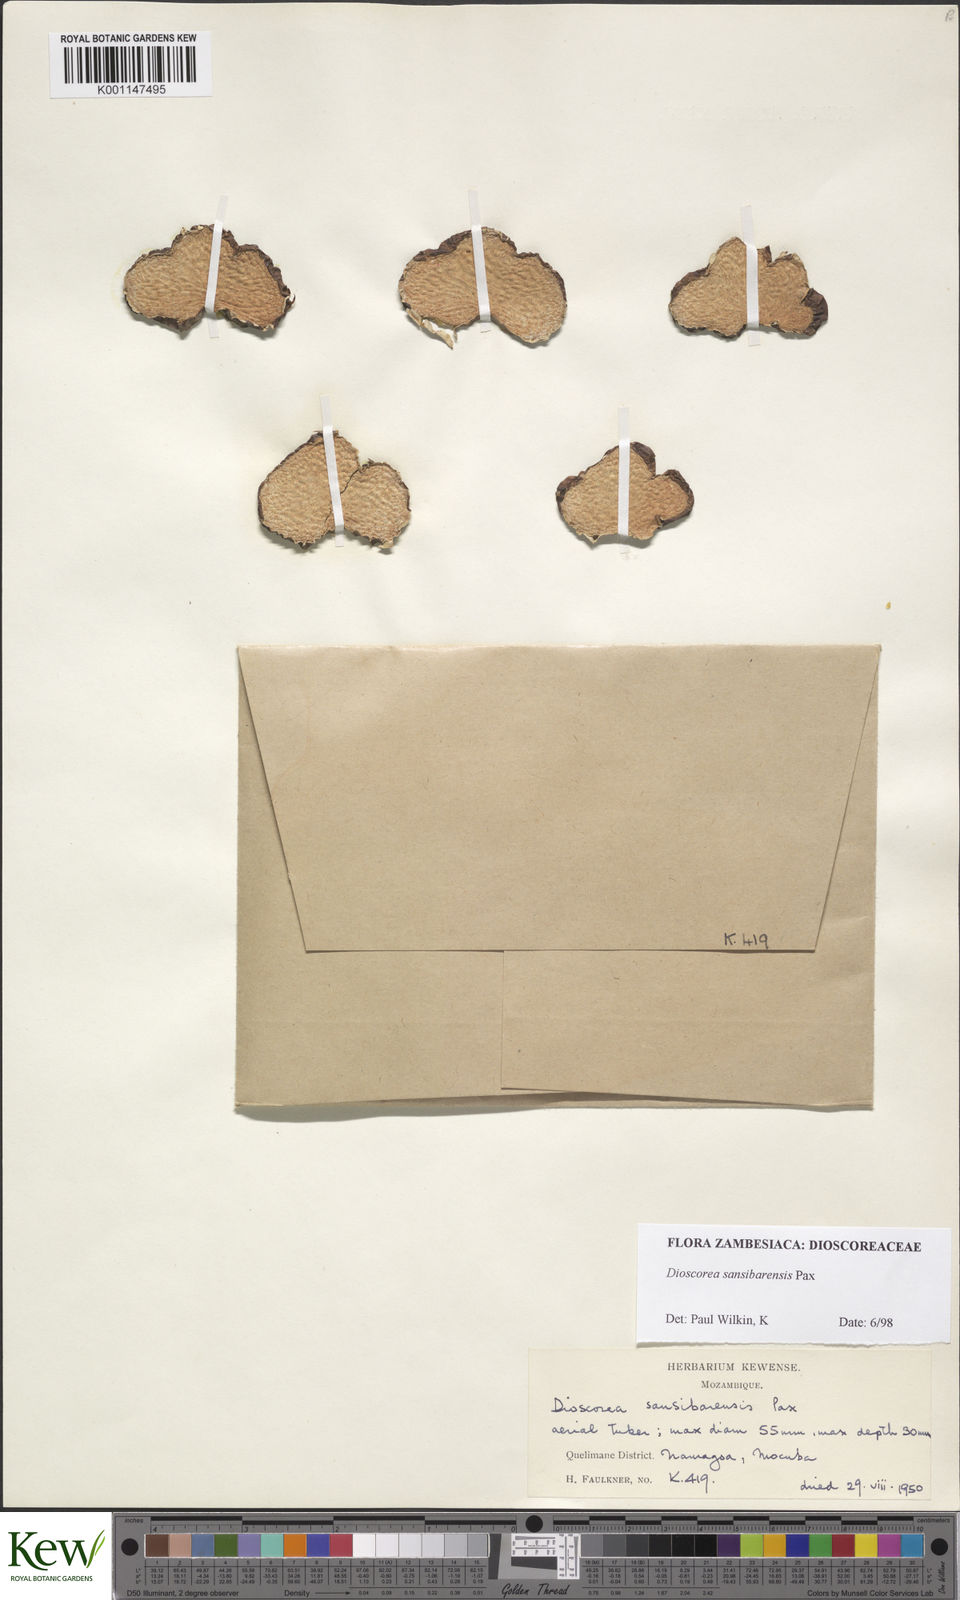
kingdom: Plantae
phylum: Tracheophyta
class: Liliopsida
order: Dioscoreales
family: Dioscoreaceae
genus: Dioscorea
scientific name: Dioscorea sansibarensis
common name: Zanzibar yam
